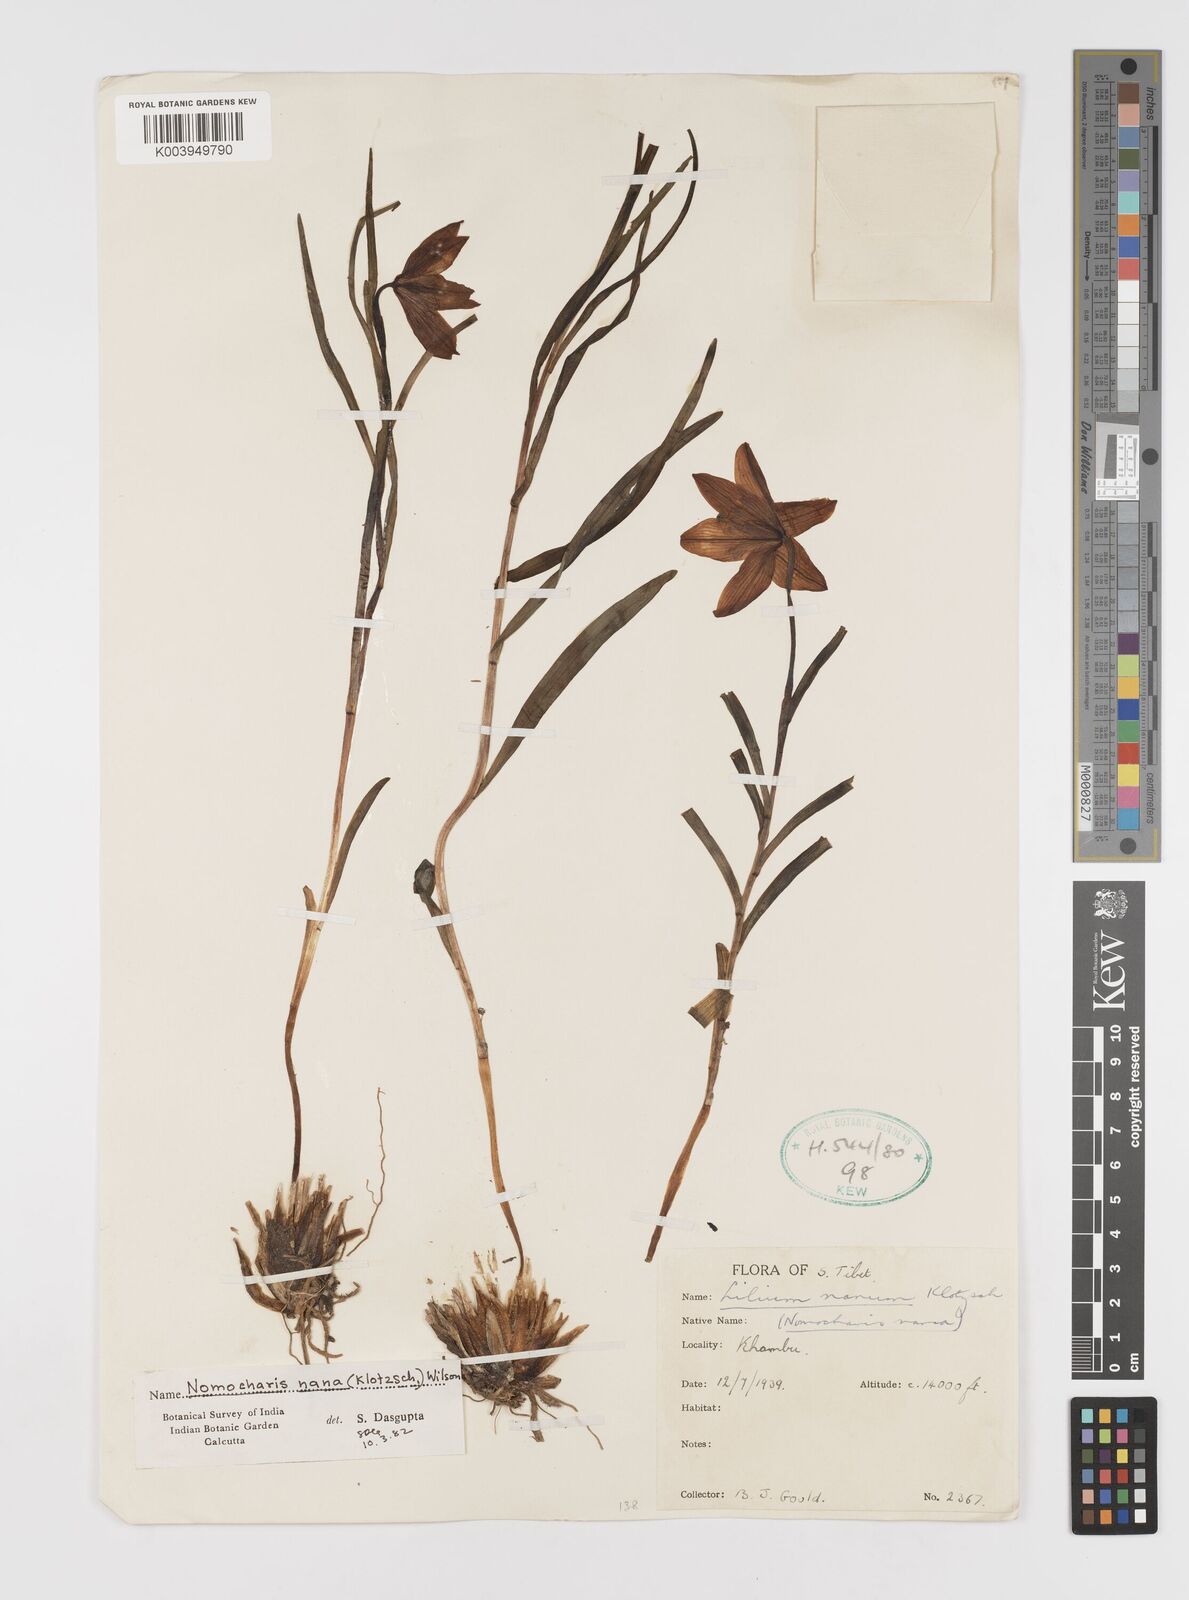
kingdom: Plantae
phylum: Tracheophyta
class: Liliopsida
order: Liliales
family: Liliaceae
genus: Lilium
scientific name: Lilium nanum
